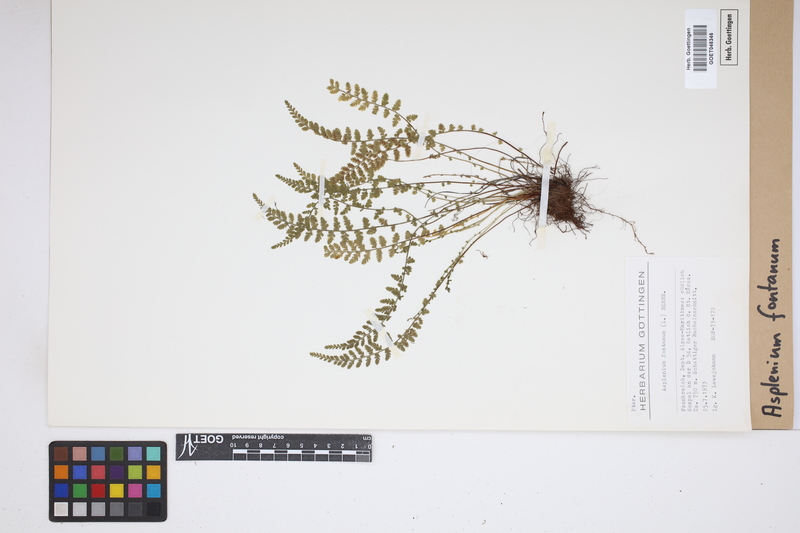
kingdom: Plantae
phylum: Tracheophyta
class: Polypodiopsida
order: Polypodiales
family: Aspleniaceae
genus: Asplenium
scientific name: Asplenium fontanum
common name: Fountain spleenwort
